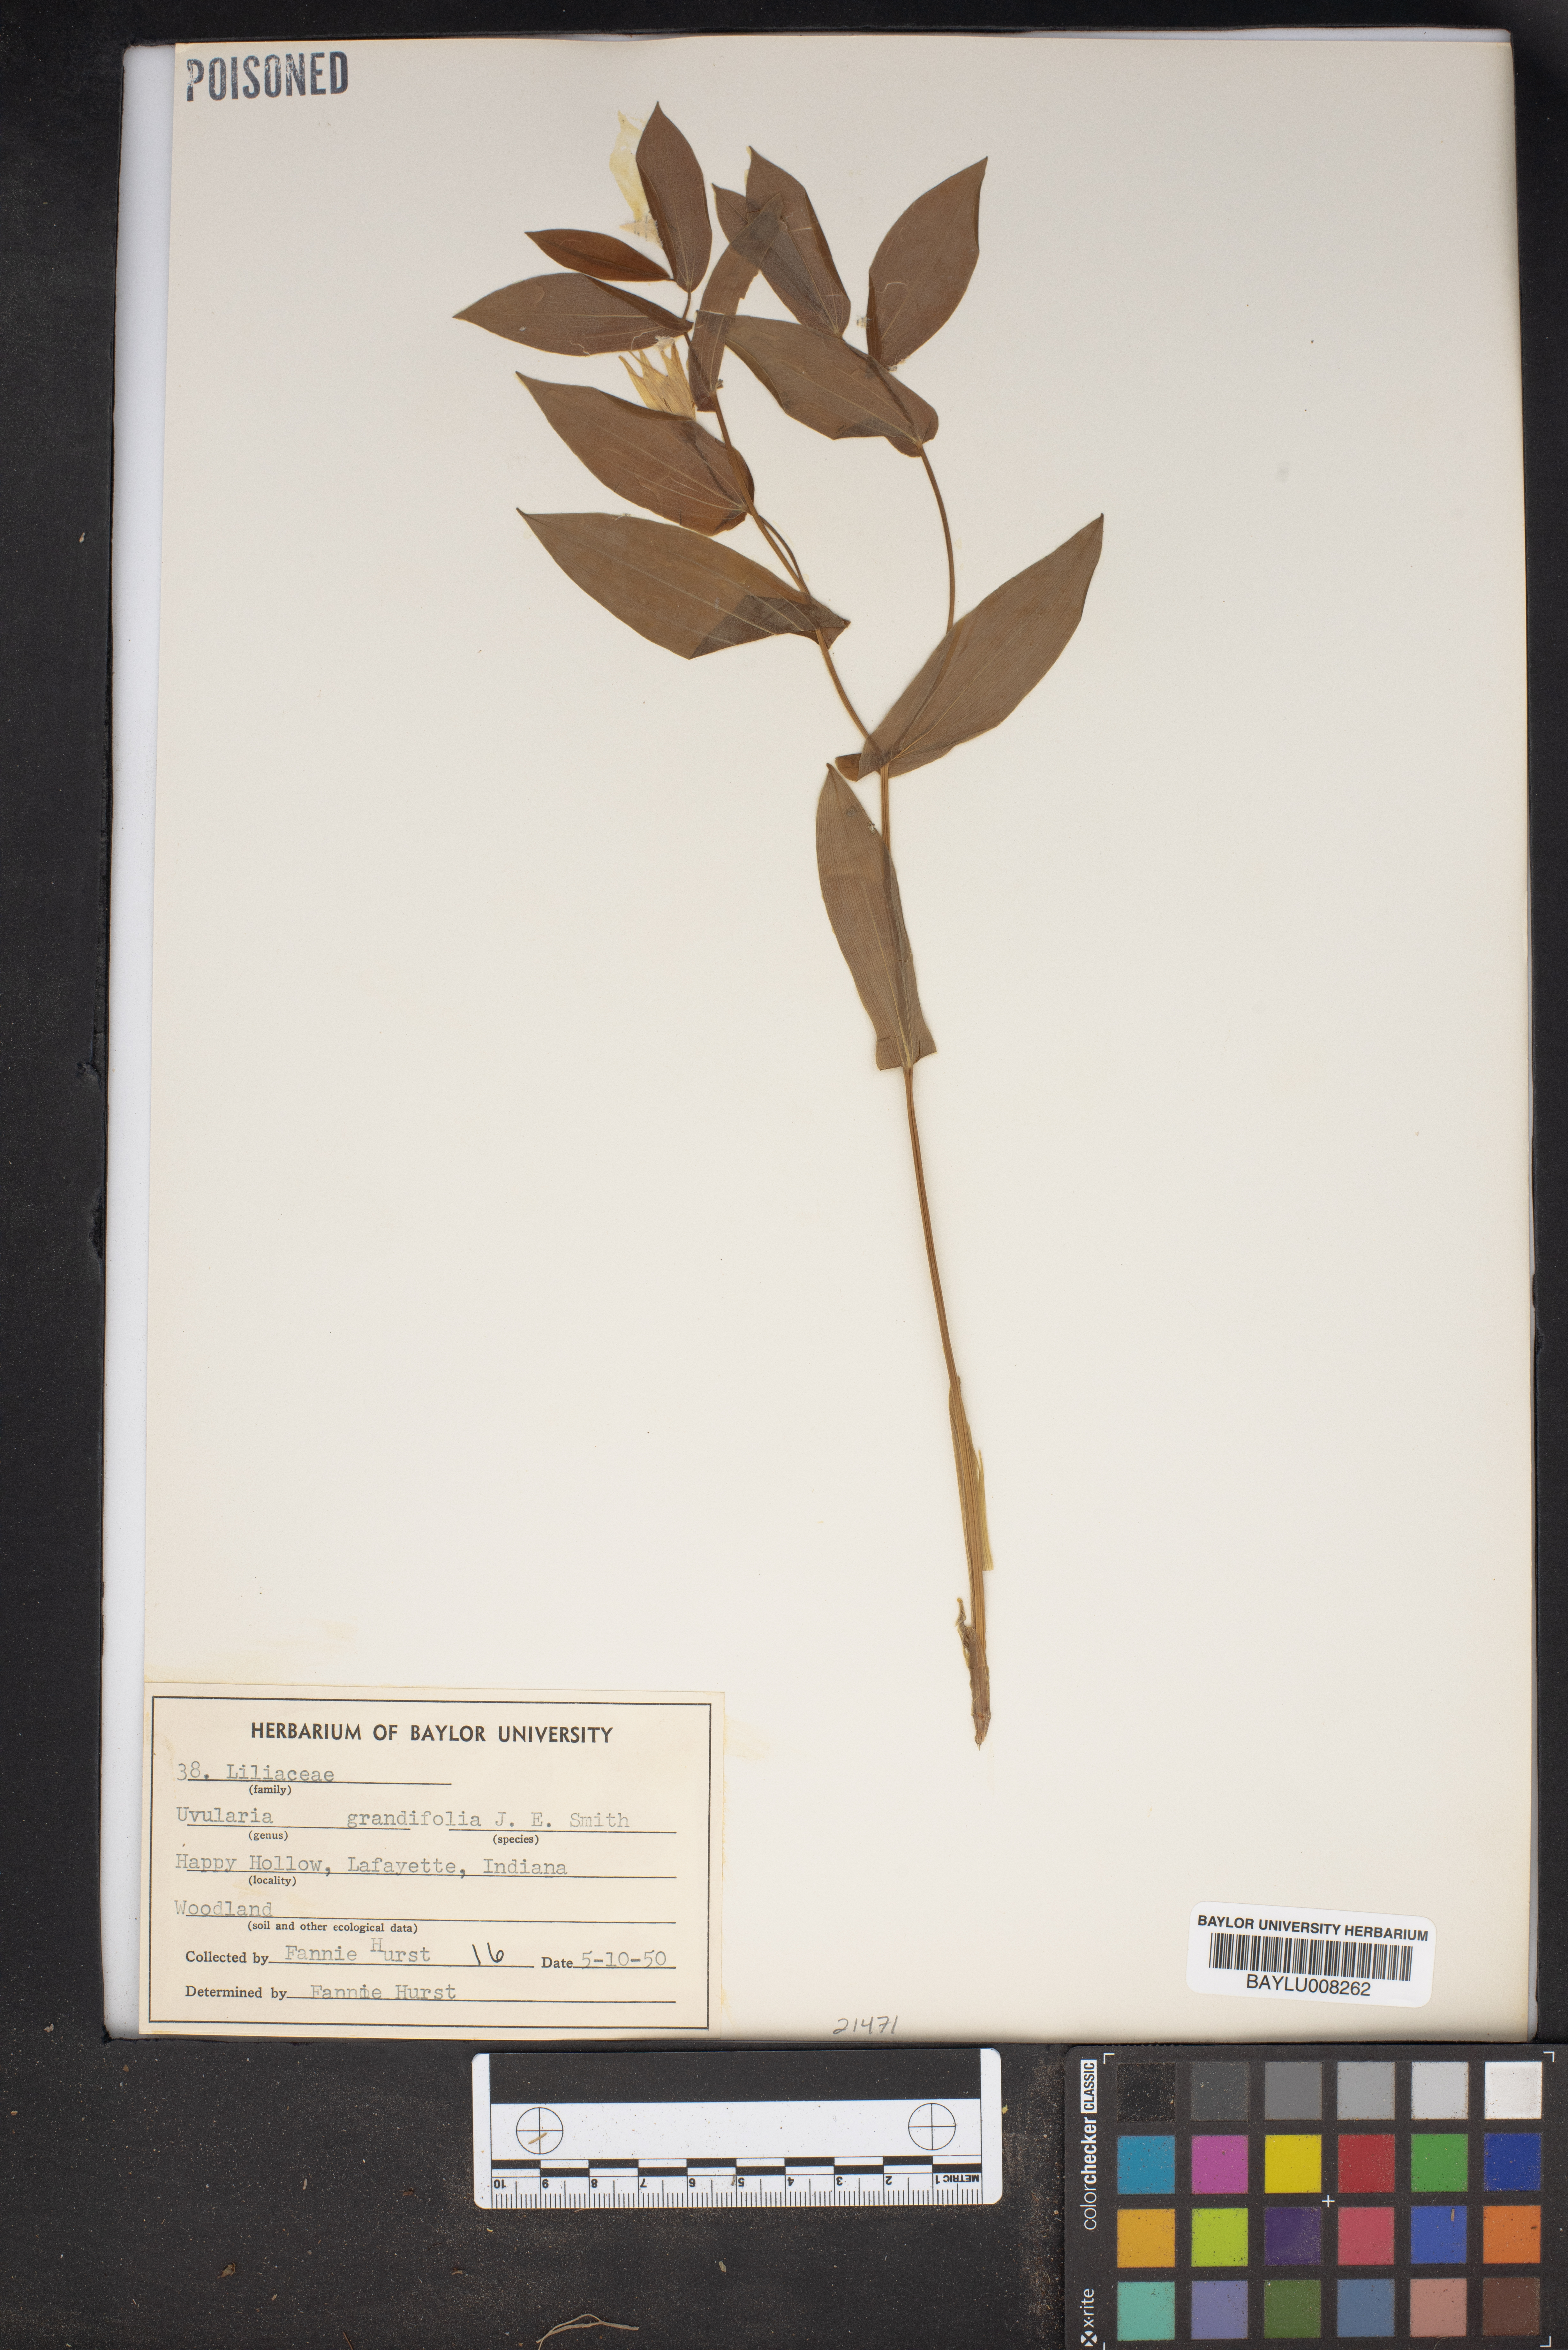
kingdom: Plantae
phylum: Tracheophyta
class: Liliopsida
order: Liliales
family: Colchicaceae
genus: Uvularia
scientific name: Uvularia grandiflora
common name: Bellwort
